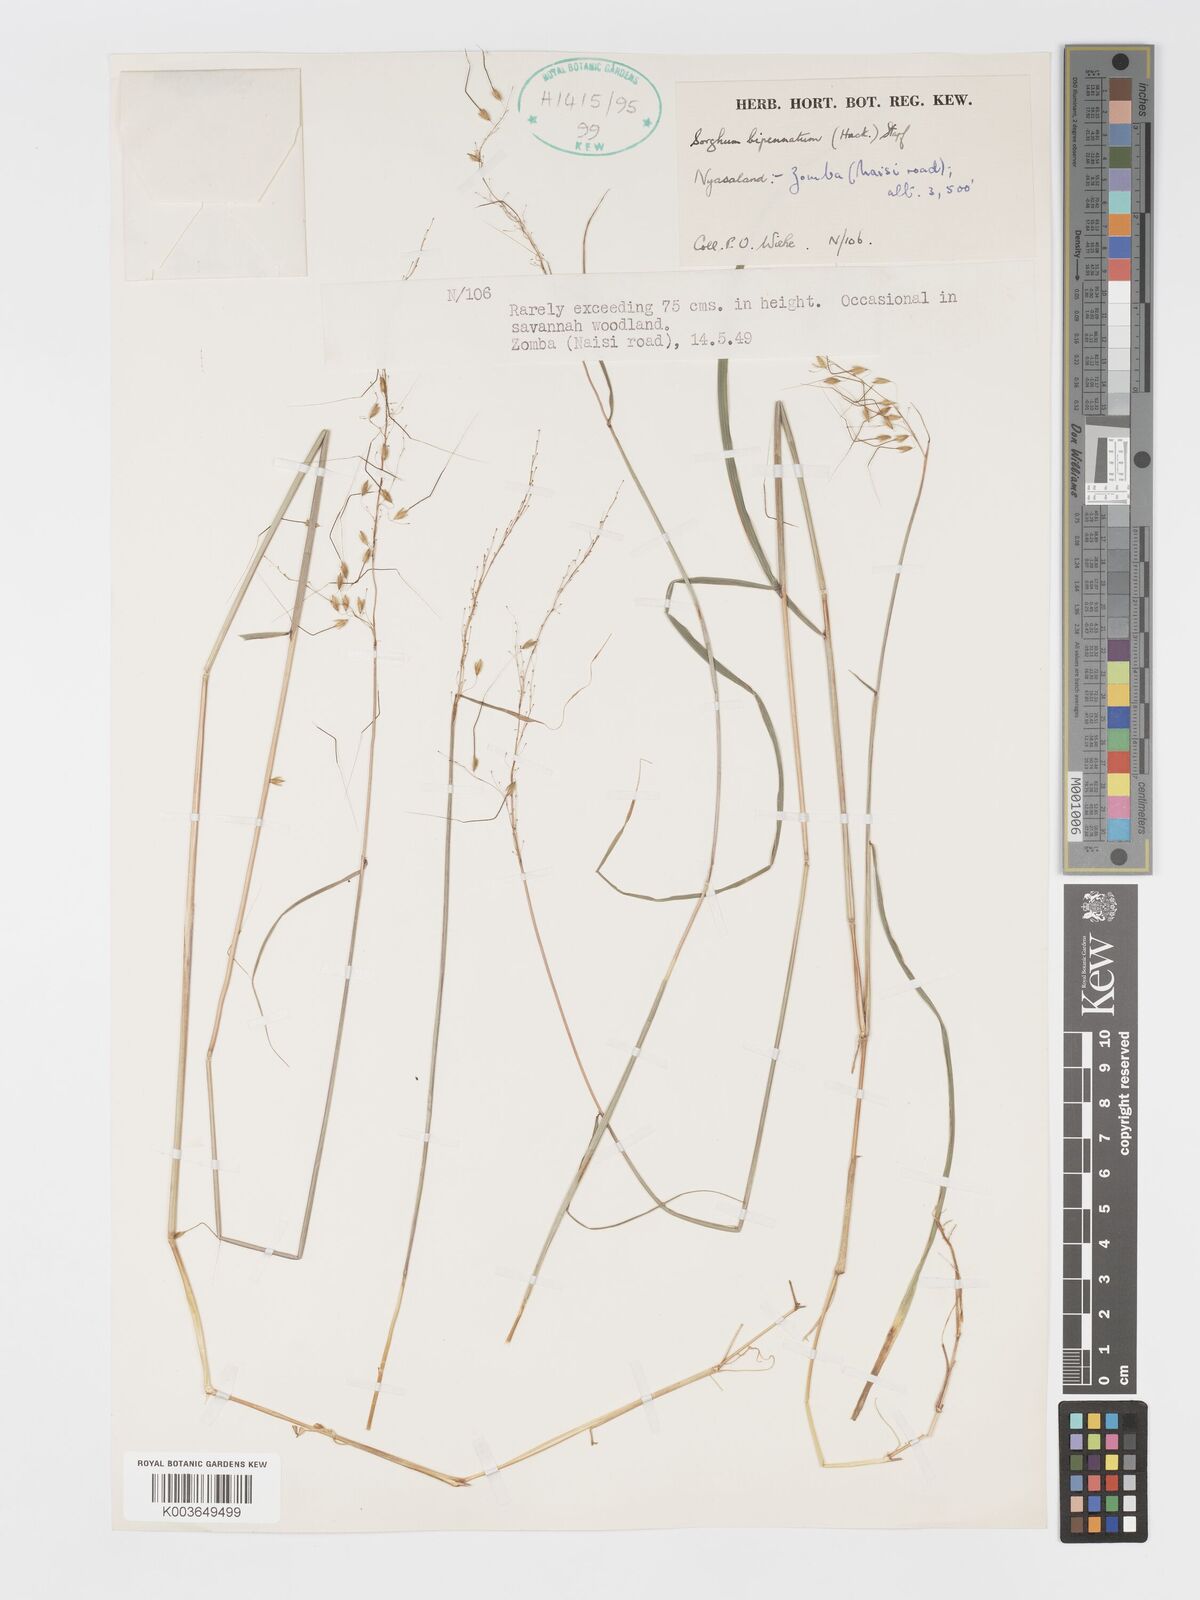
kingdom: Plantae
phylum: Tracheophyta
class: Liliopsida
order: Poales
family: Poaceae
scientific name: Poaceae
